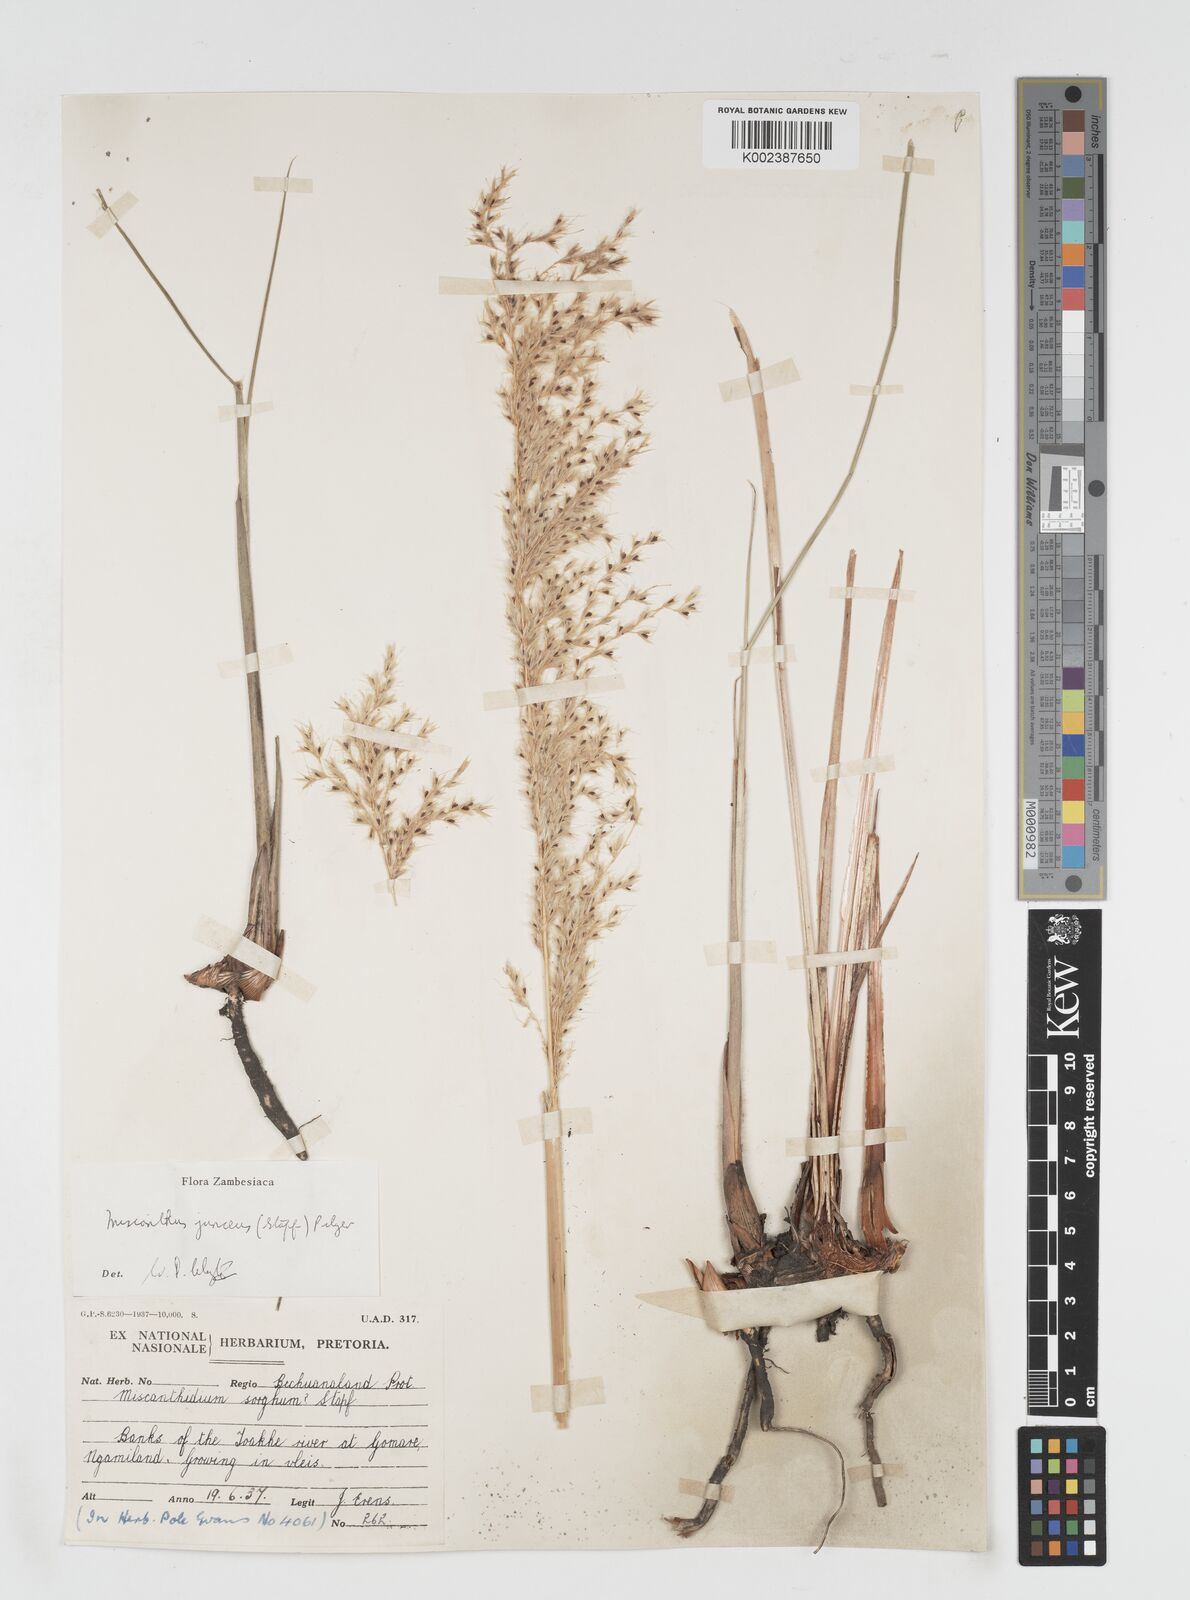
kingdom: Plantae
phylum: Tracheophyta
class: Liliopsida
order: Poales
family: Poaceae
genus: Miscanthidium
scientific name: Miscanthidium junceum
